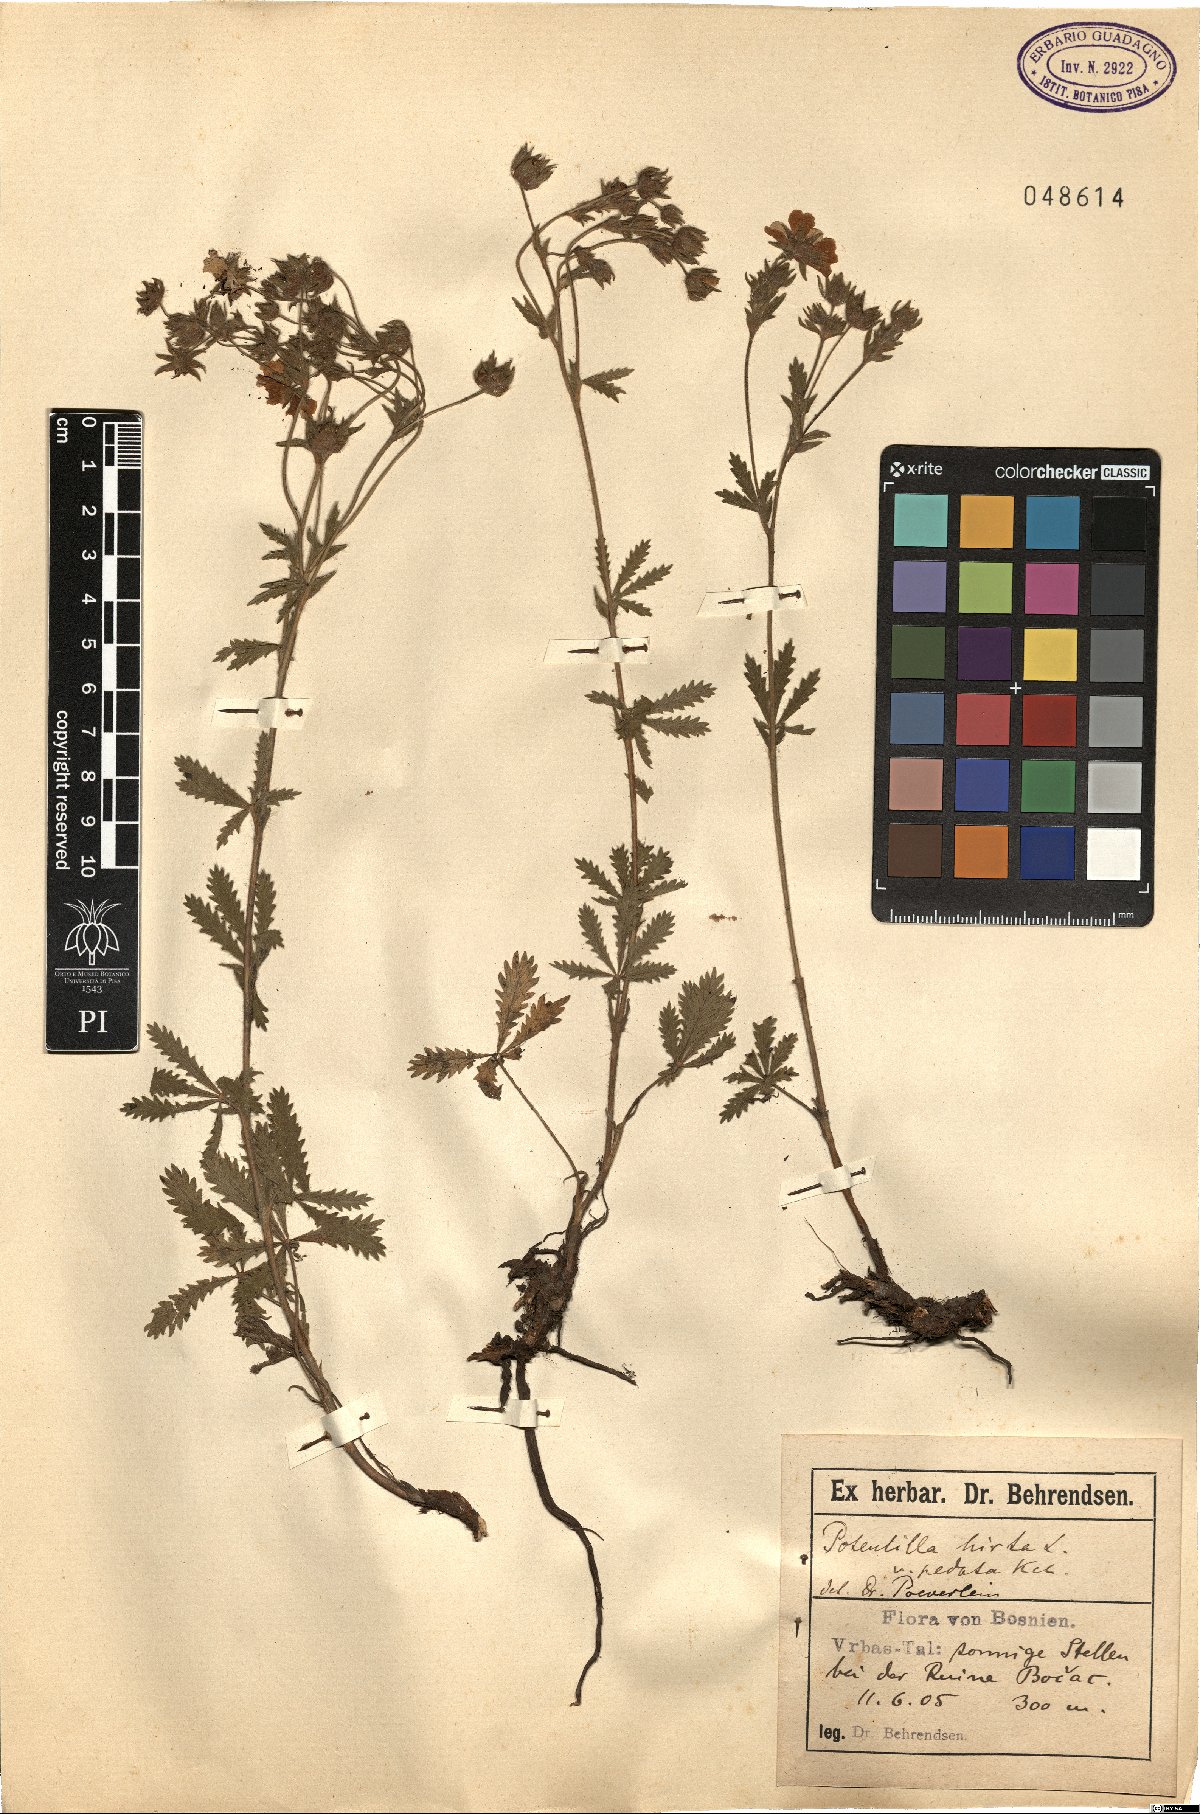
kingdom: Plantae
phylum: Tracheophyta
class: Magnoliopsida
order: Rosales
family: Rosaceae
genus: Potentilla
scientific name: Potentilla pedata
